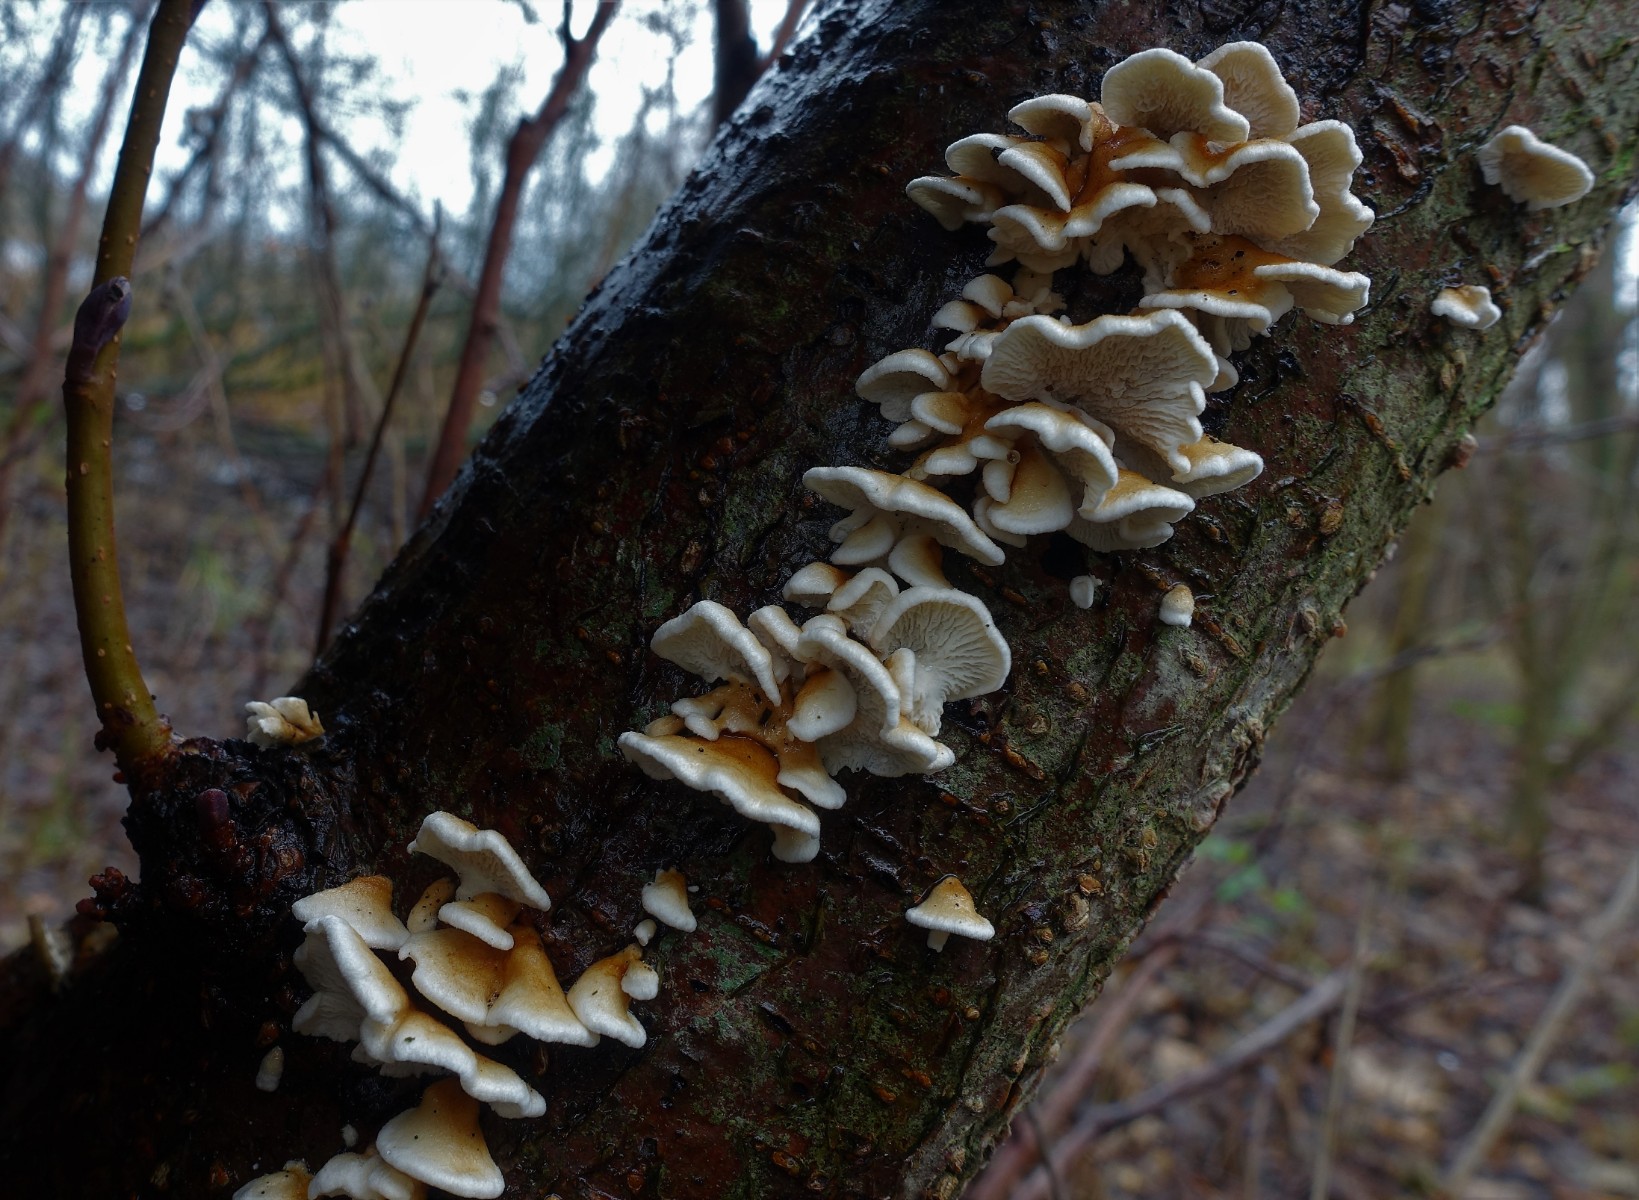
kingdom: Fungi
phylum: Basidiomycota
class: Agaricomycetes
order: Amylocorticiales
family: Amylocorticiaceae
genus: Plicaturopsis
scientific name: Plicaturopsis crispa
